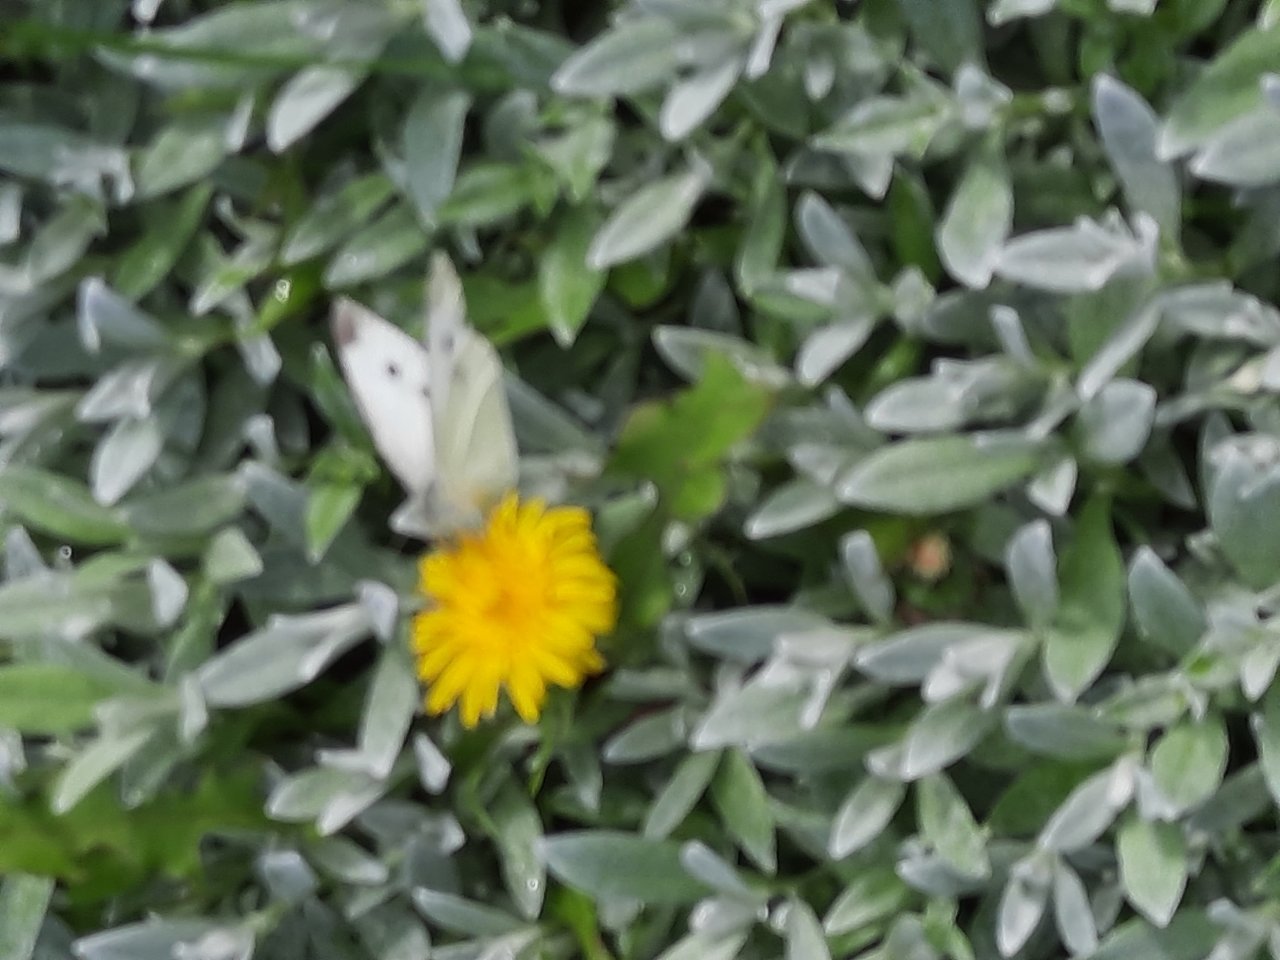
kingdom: Animalia
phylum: Arthropoda
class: Insecta
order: Lepidoptera
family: Pieridae
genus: Pieris
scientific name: Pieris rapae
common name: Cabbage White
